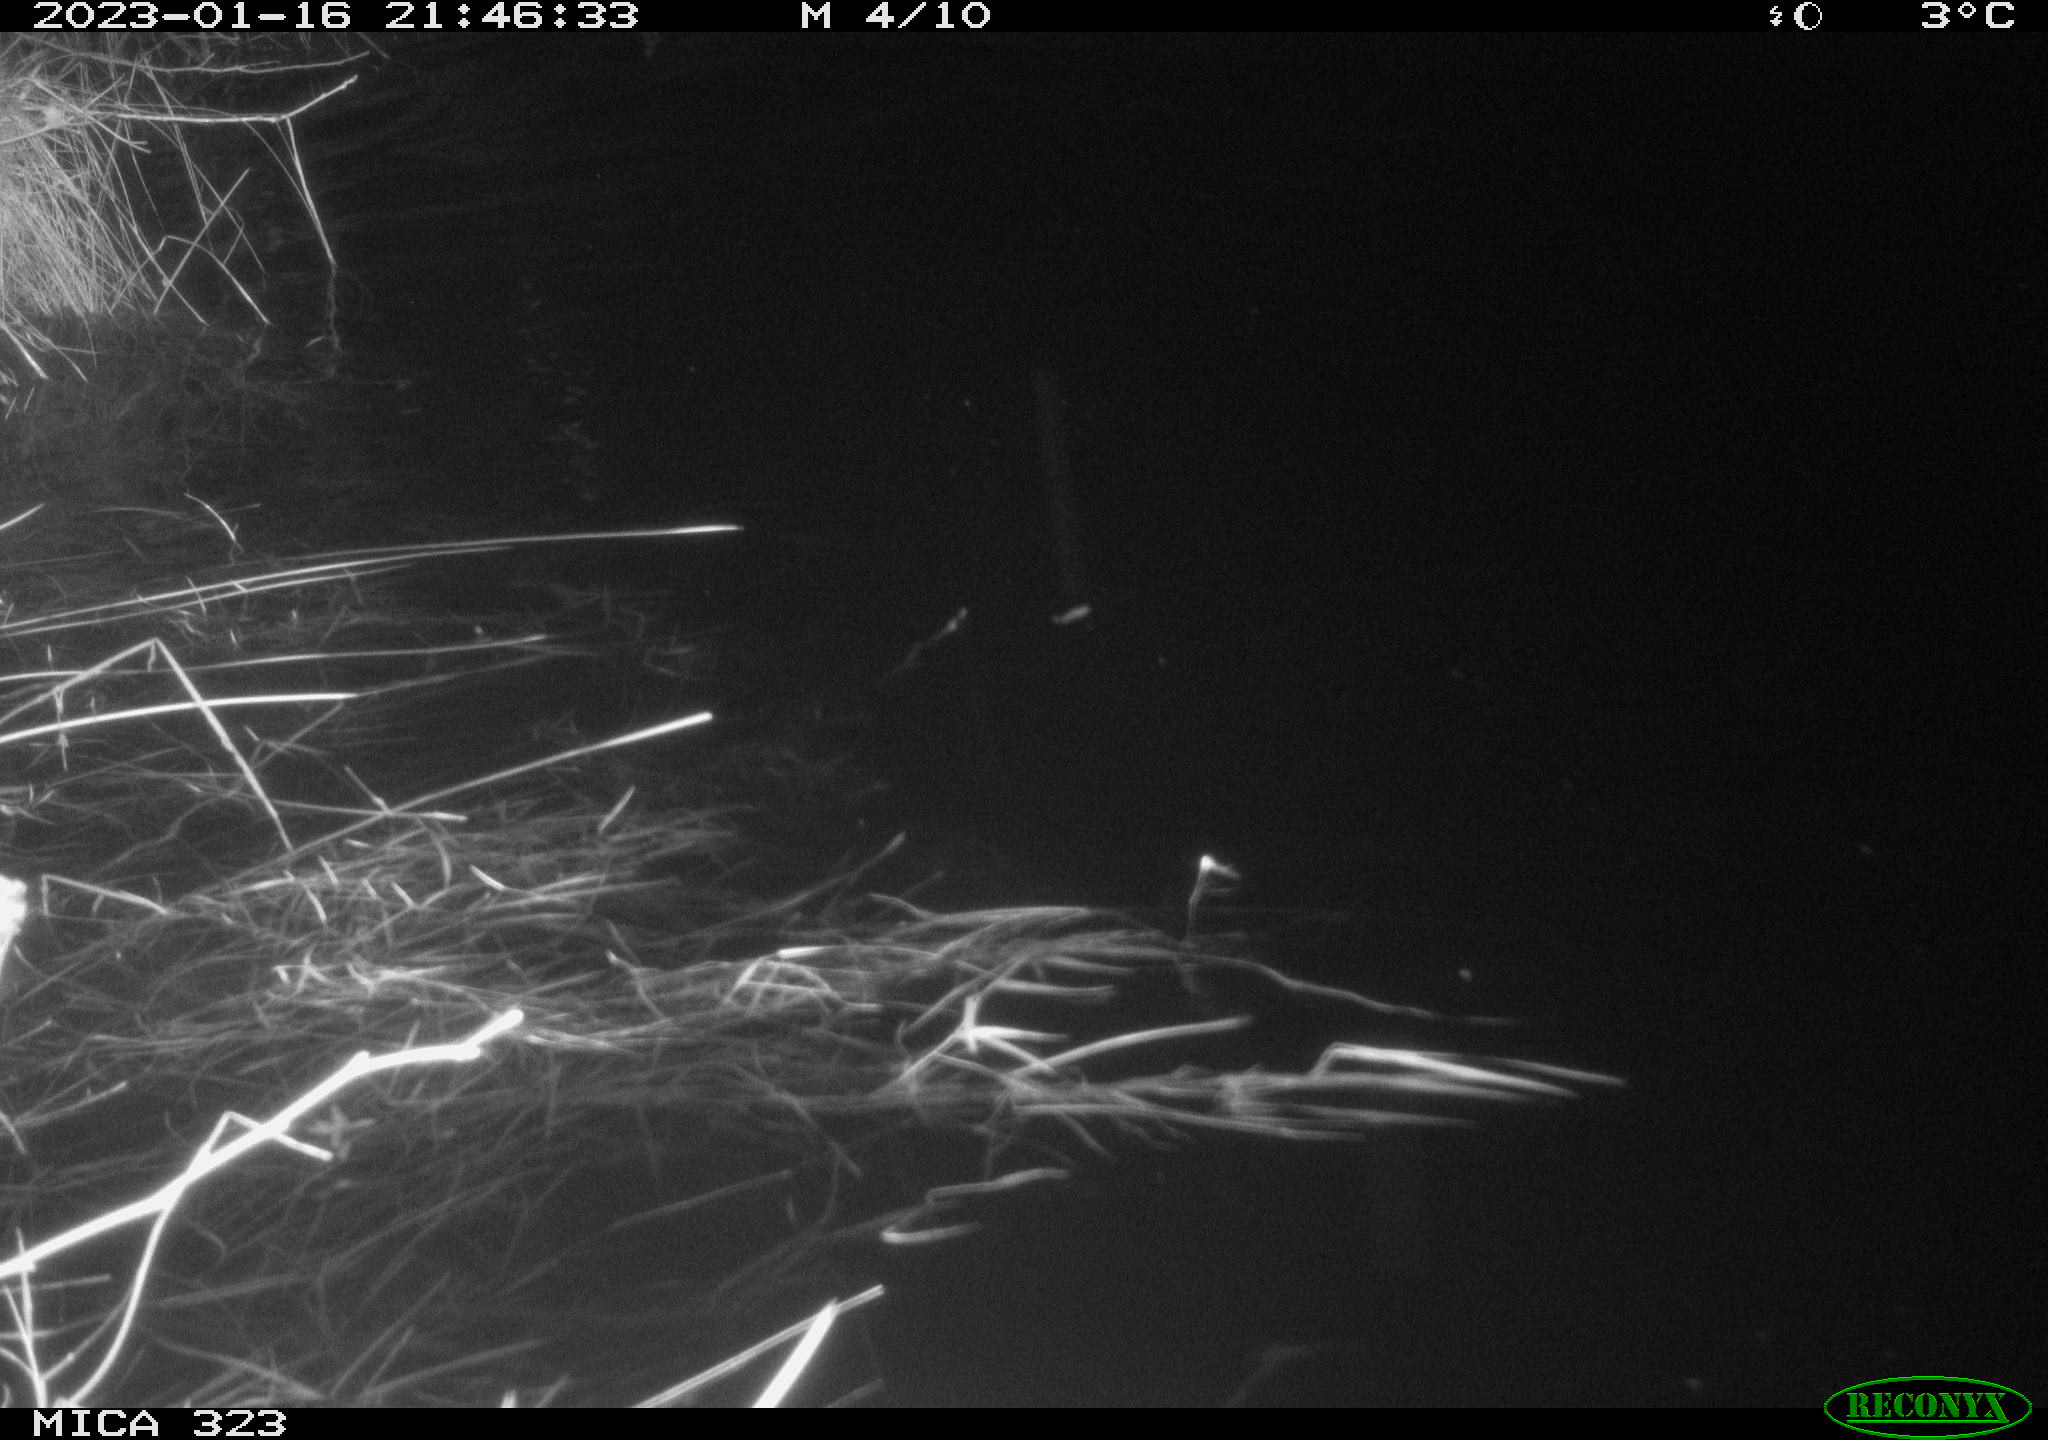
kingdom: Animalia
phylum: Chordata
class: Mammalia
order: Rodentia
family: Cricetidae
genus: Ondatra
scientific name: Ondatra zibethicus
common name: Muskrat
